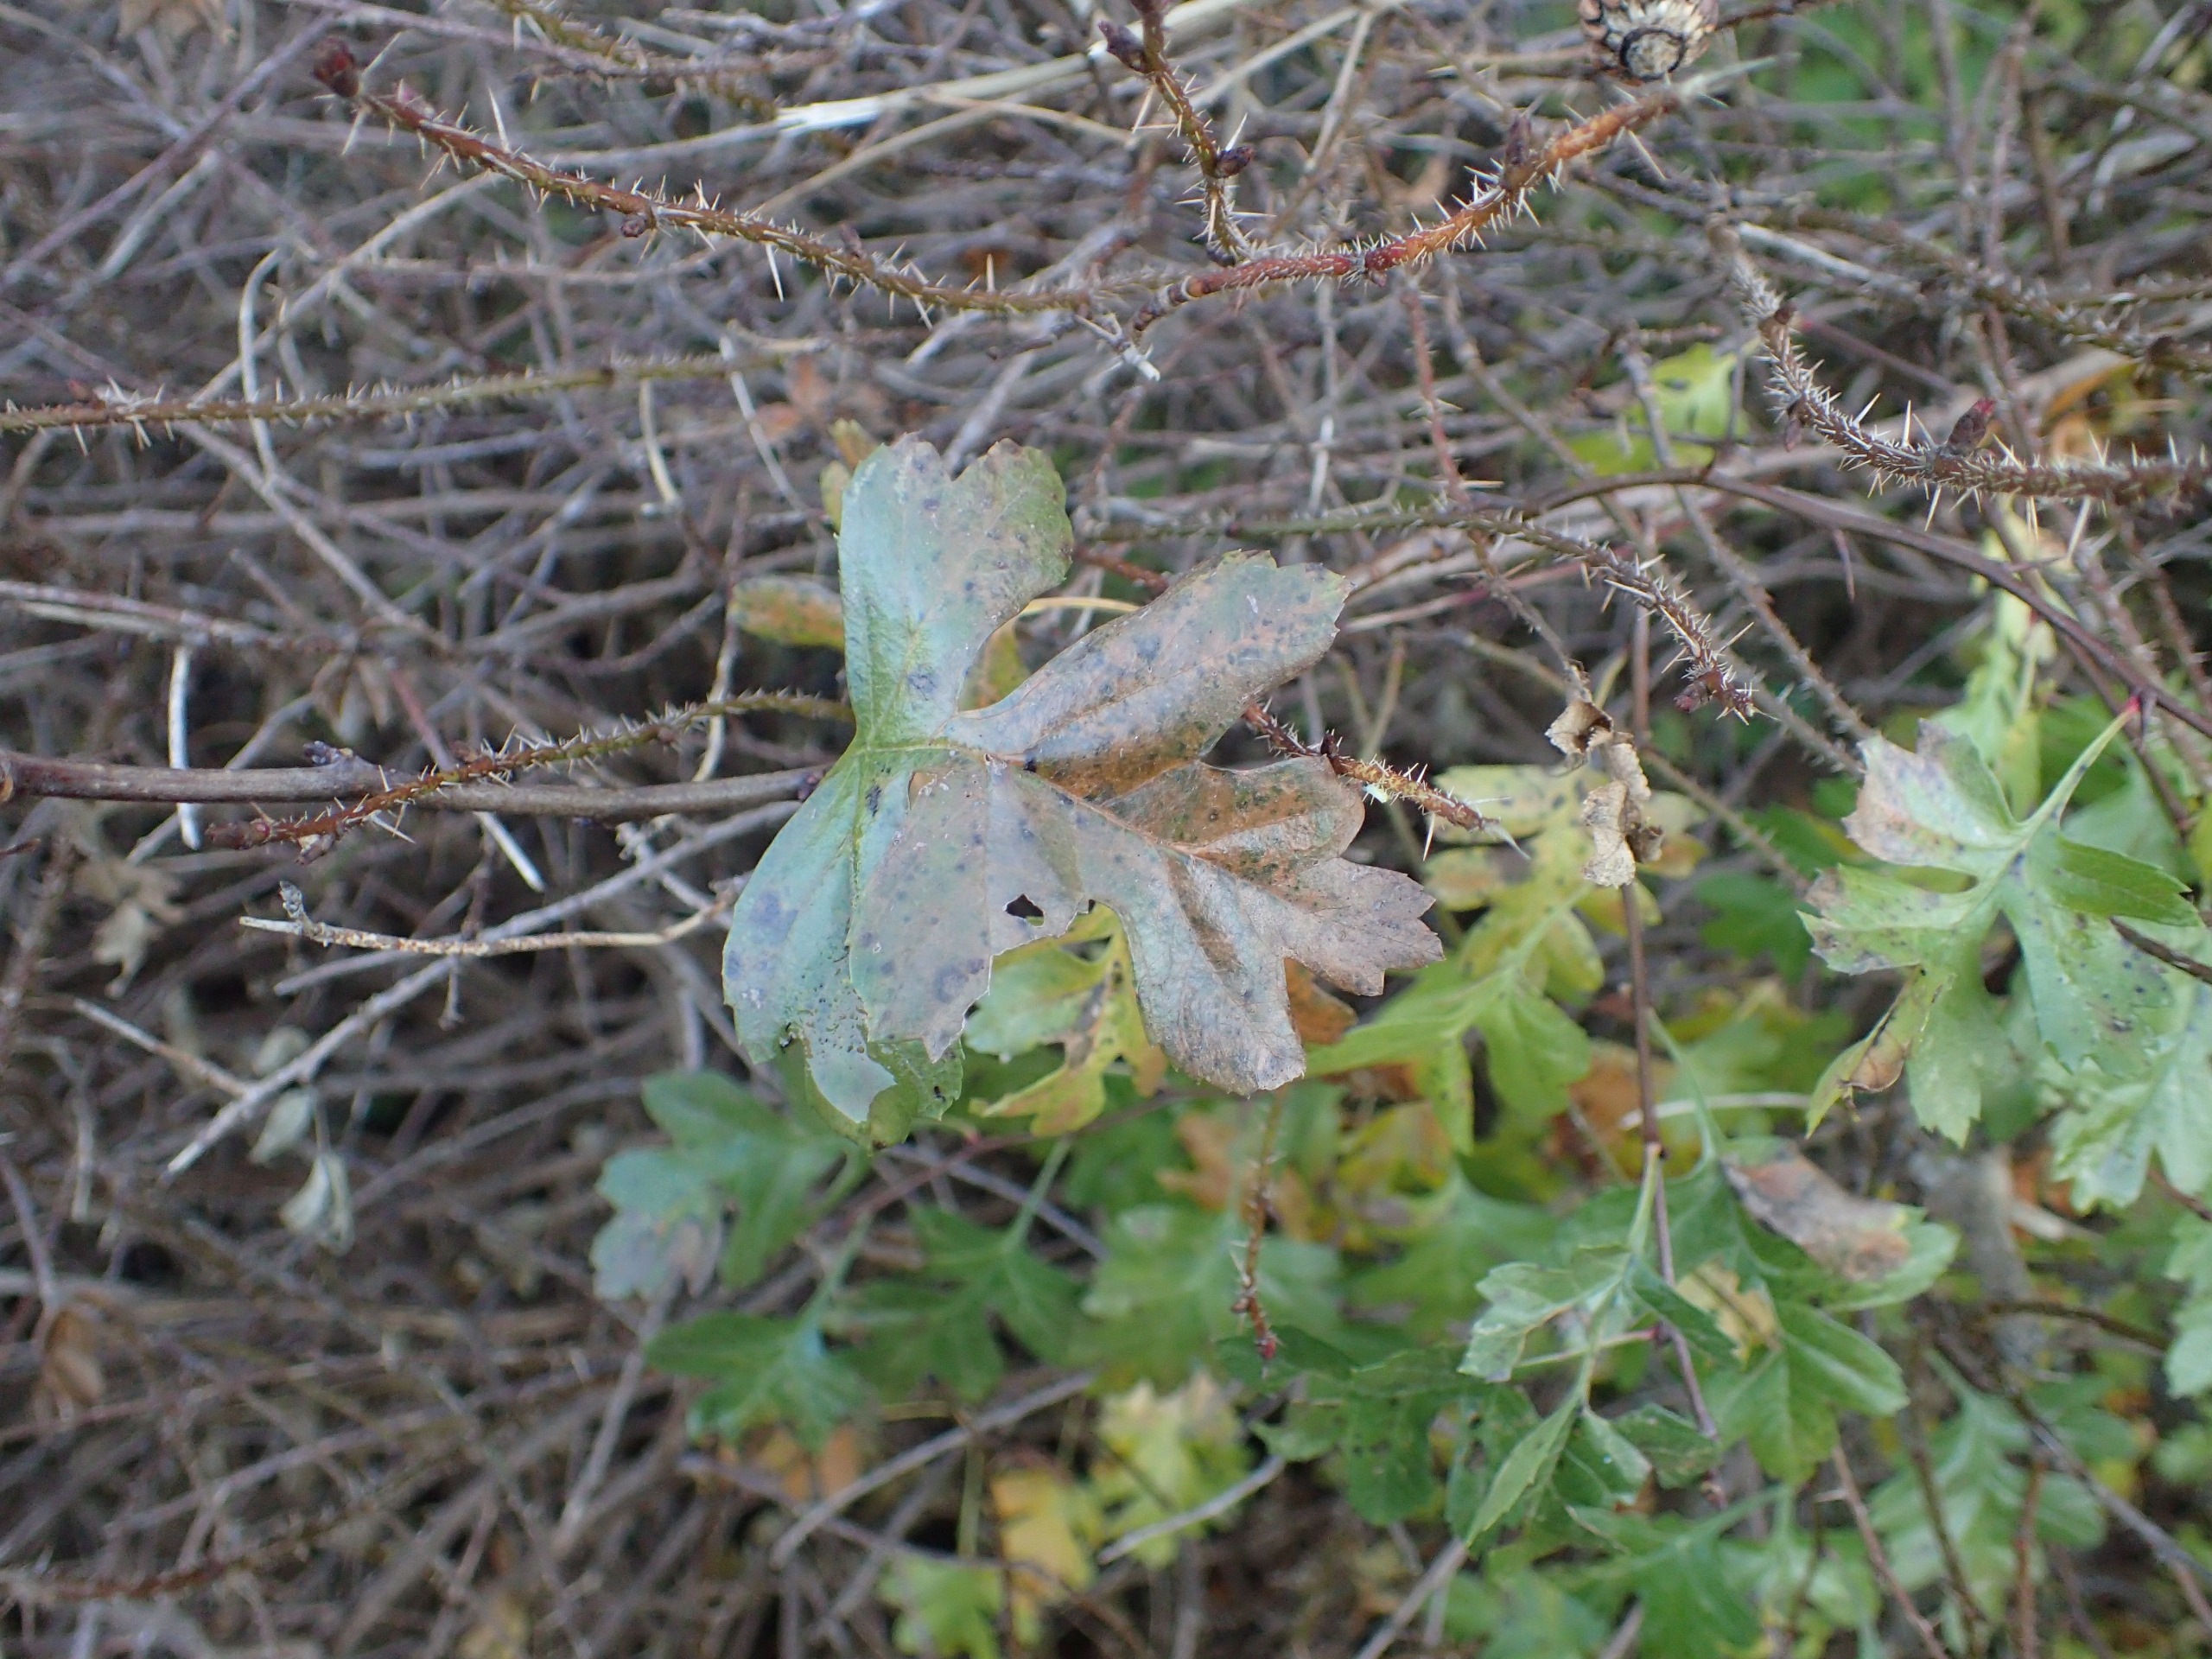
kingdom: Plantae
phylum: Tracheophyta
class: Magnoliopsida
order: Rosales
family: Rosaceae
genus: Crataegus
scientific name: Crataegus subsphaerica
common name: Engriflet hvidtjørn × koral-hvidtjørn
